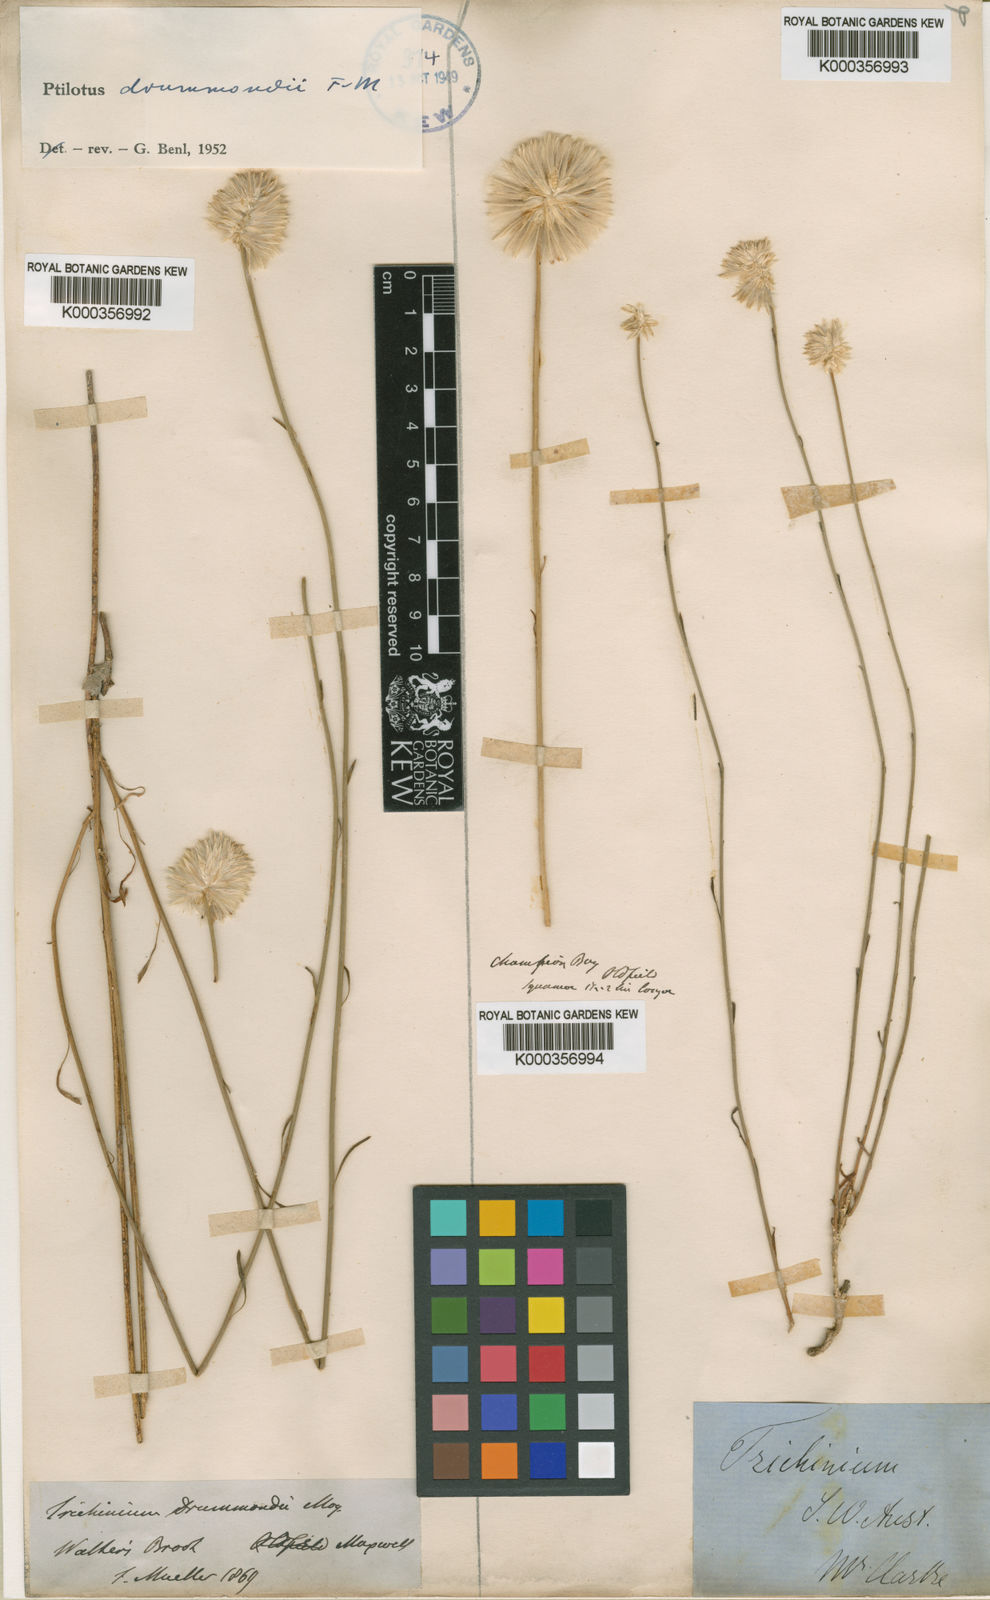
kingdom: Plantae
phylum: Tracheophyta
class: Magnoliopsida
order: Caryophyllales
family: Amaranthaceae
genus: Ptilotus
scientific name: Ptilotus drummondii
